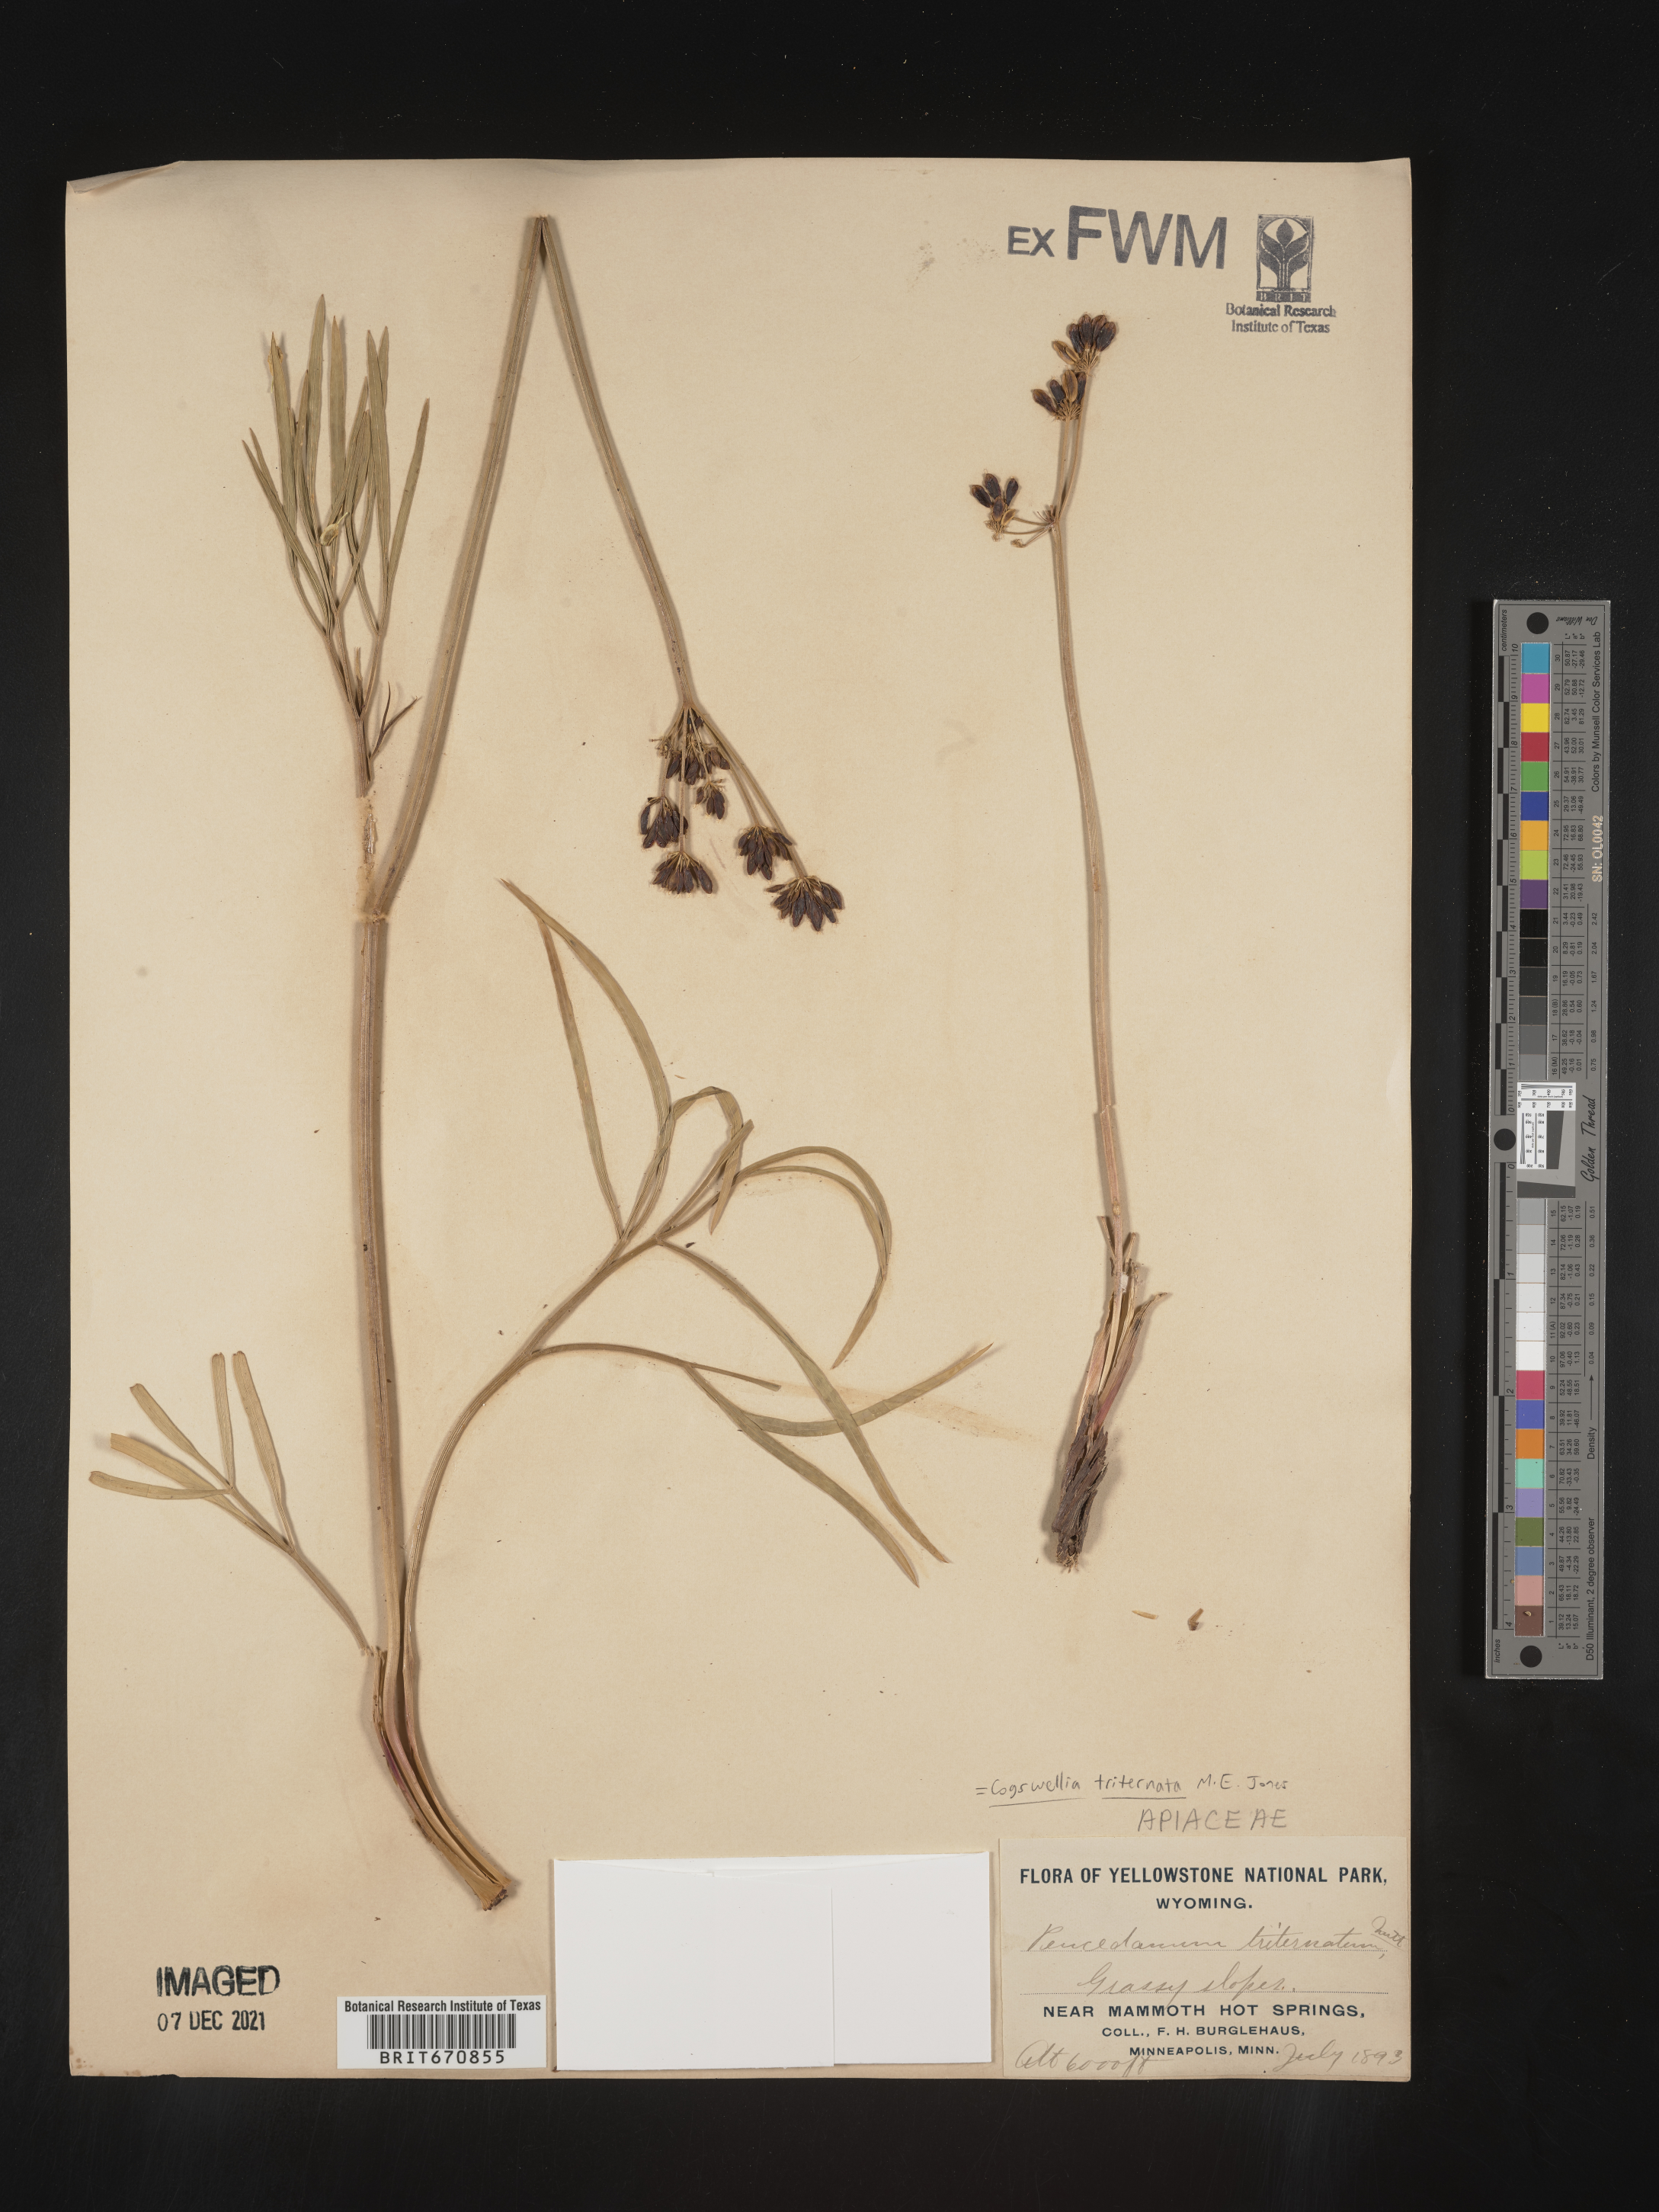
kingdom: Plantae
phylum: Tracheophyta
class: Magnoliopsida
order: Apiales
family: Apiaceae
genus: Lomatium
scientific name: Lomatium triternatum
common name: Ternate lomatium
